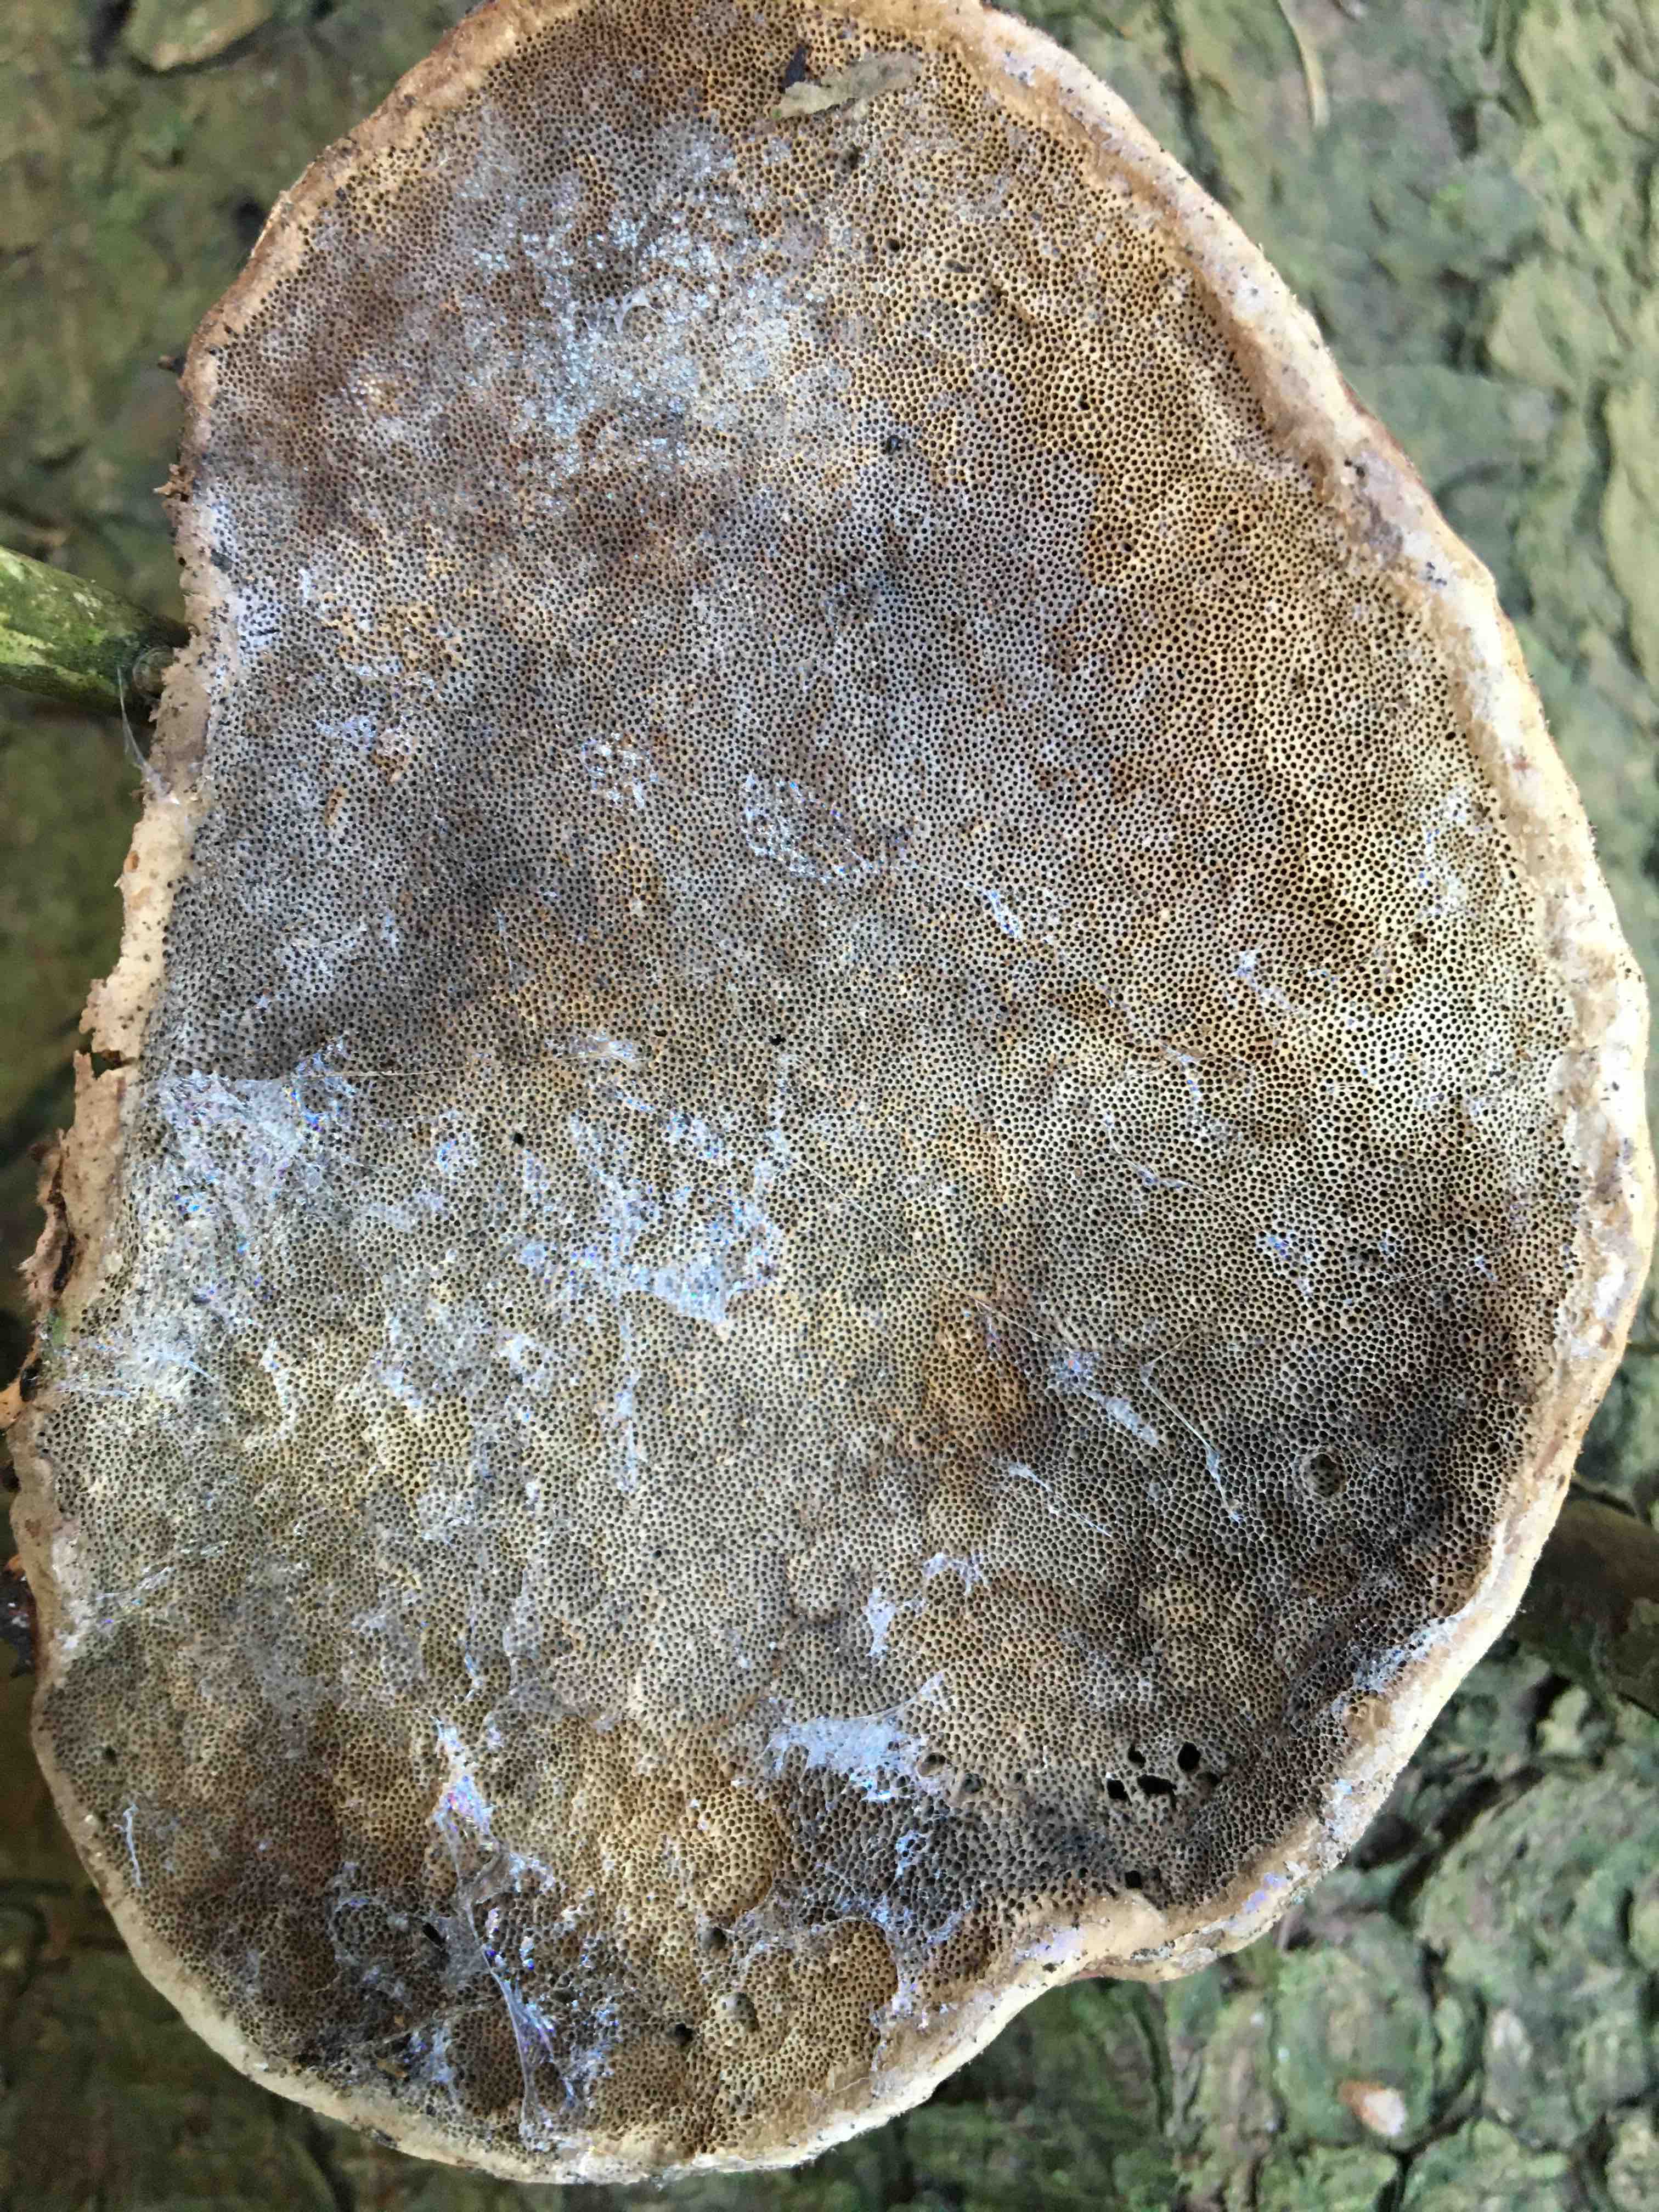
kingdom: Fungi
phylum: Basidiomycota
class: Agaricomycetes
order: Polyporales
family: Fomitopsidaceae
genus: Fomitopsis
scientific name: Fomitopsis pinicola
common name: randbæltet hovporesvamp
